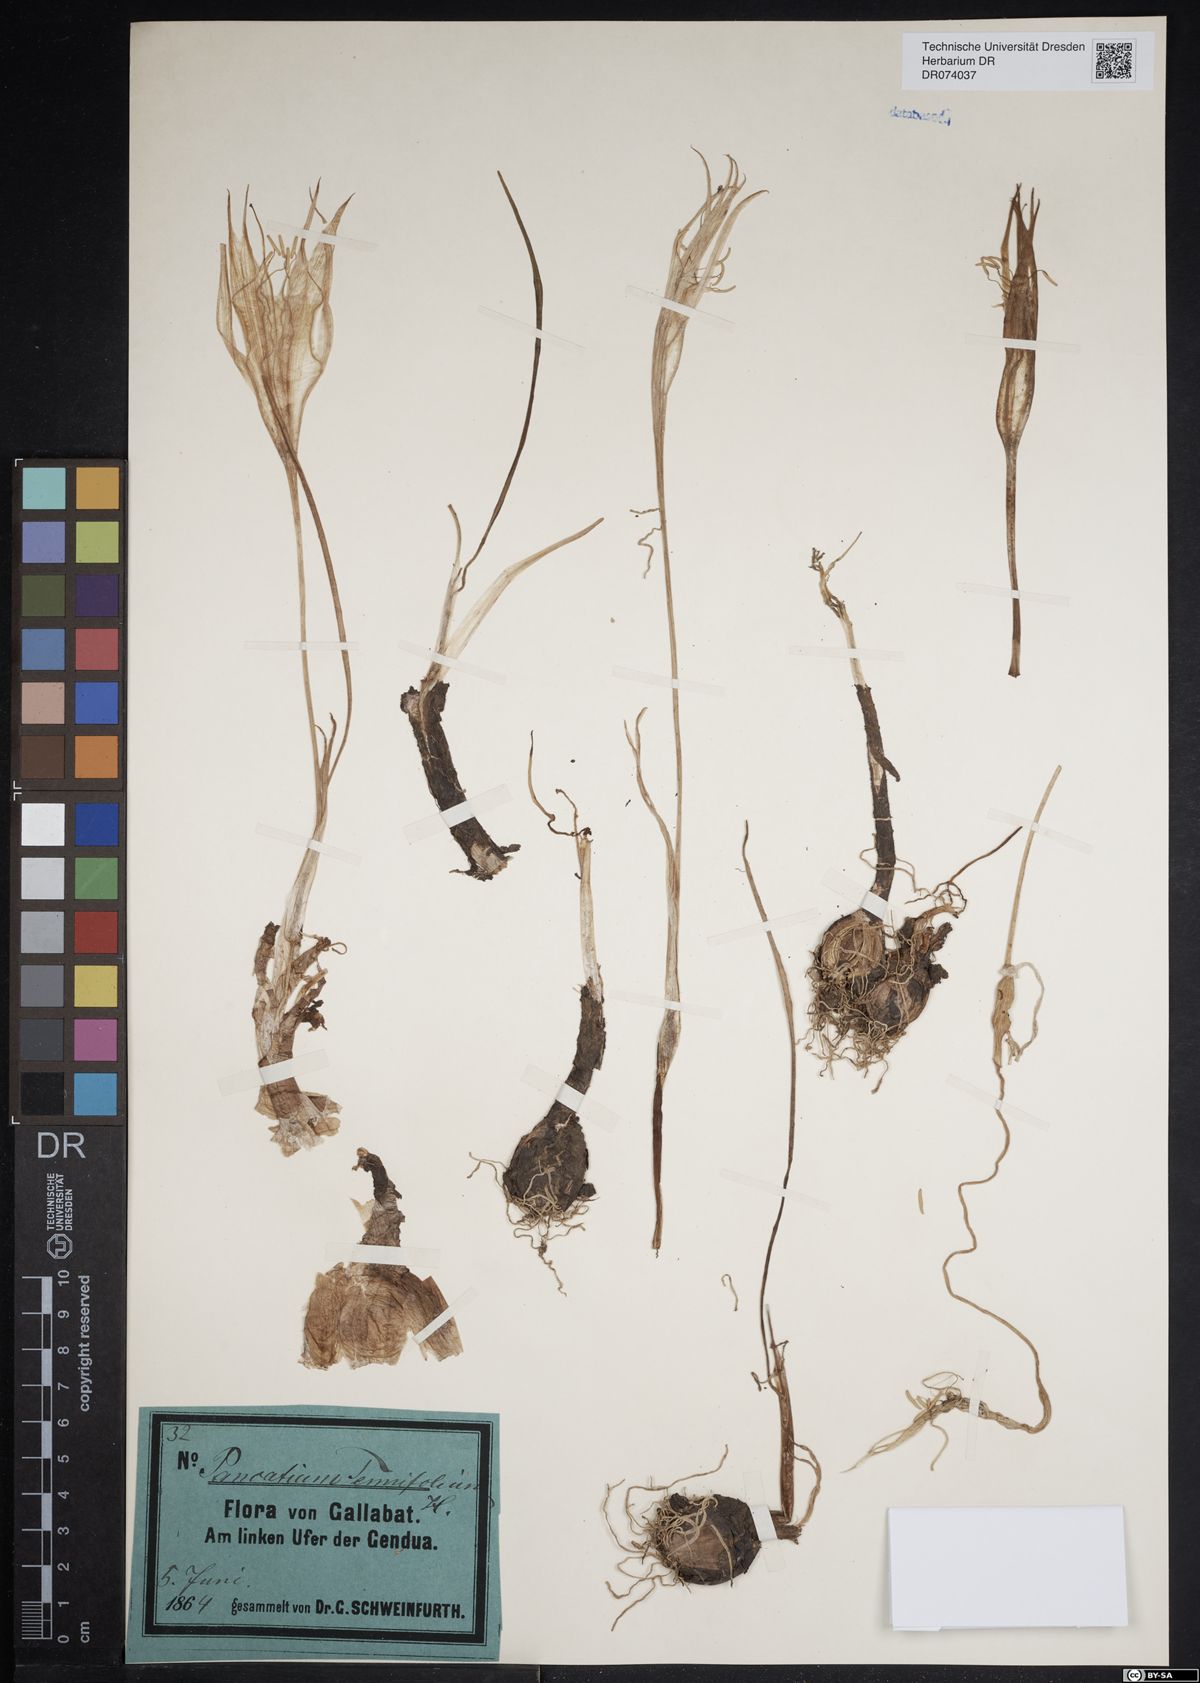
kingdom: Plantae
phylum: Tracheophyta
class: Liliopsida
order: Asparagales
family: Amaryllidaceae
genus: Hymenocallis
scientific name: Hymenocallis littoralis
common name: Beach spiderlily
